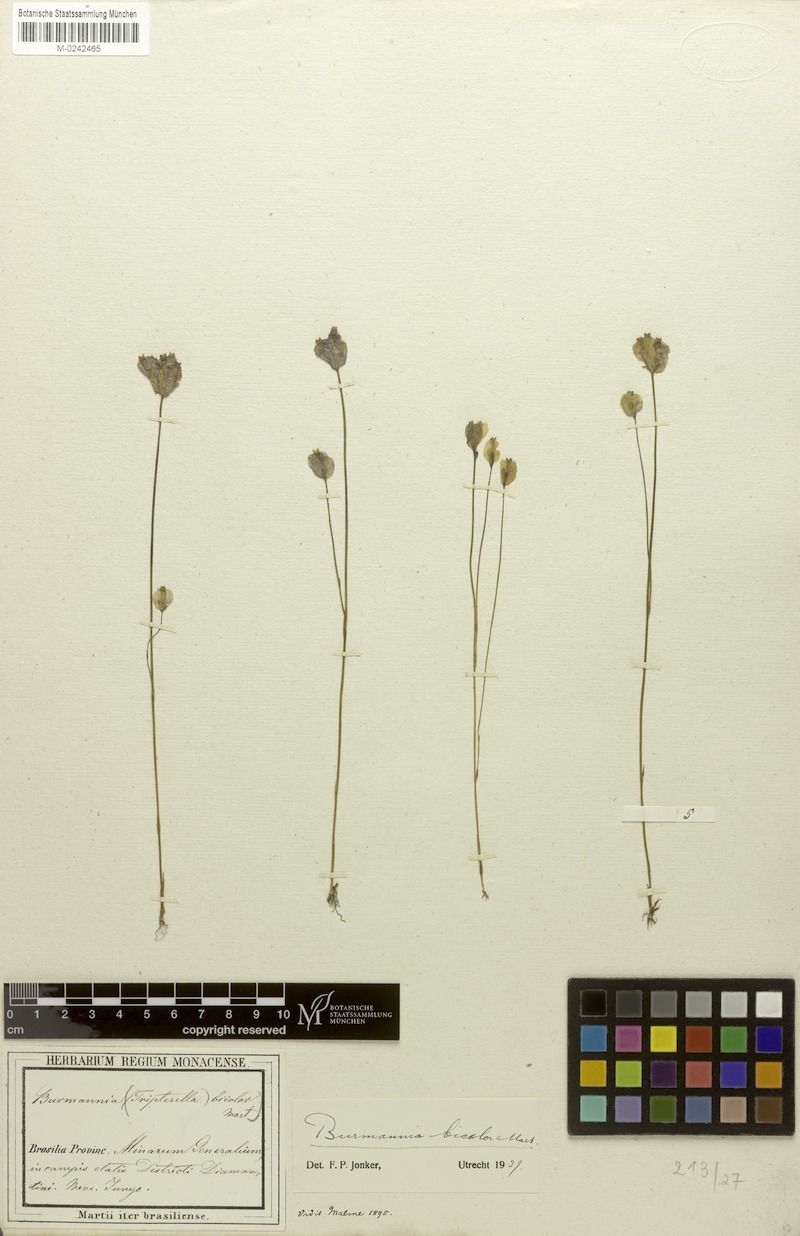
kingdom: Plantae
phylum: Tracheophyta
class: Liliopsida
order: Dioscoreales
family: Burmanniaceae
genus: Burmannia
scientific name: Burmannia bicolor
